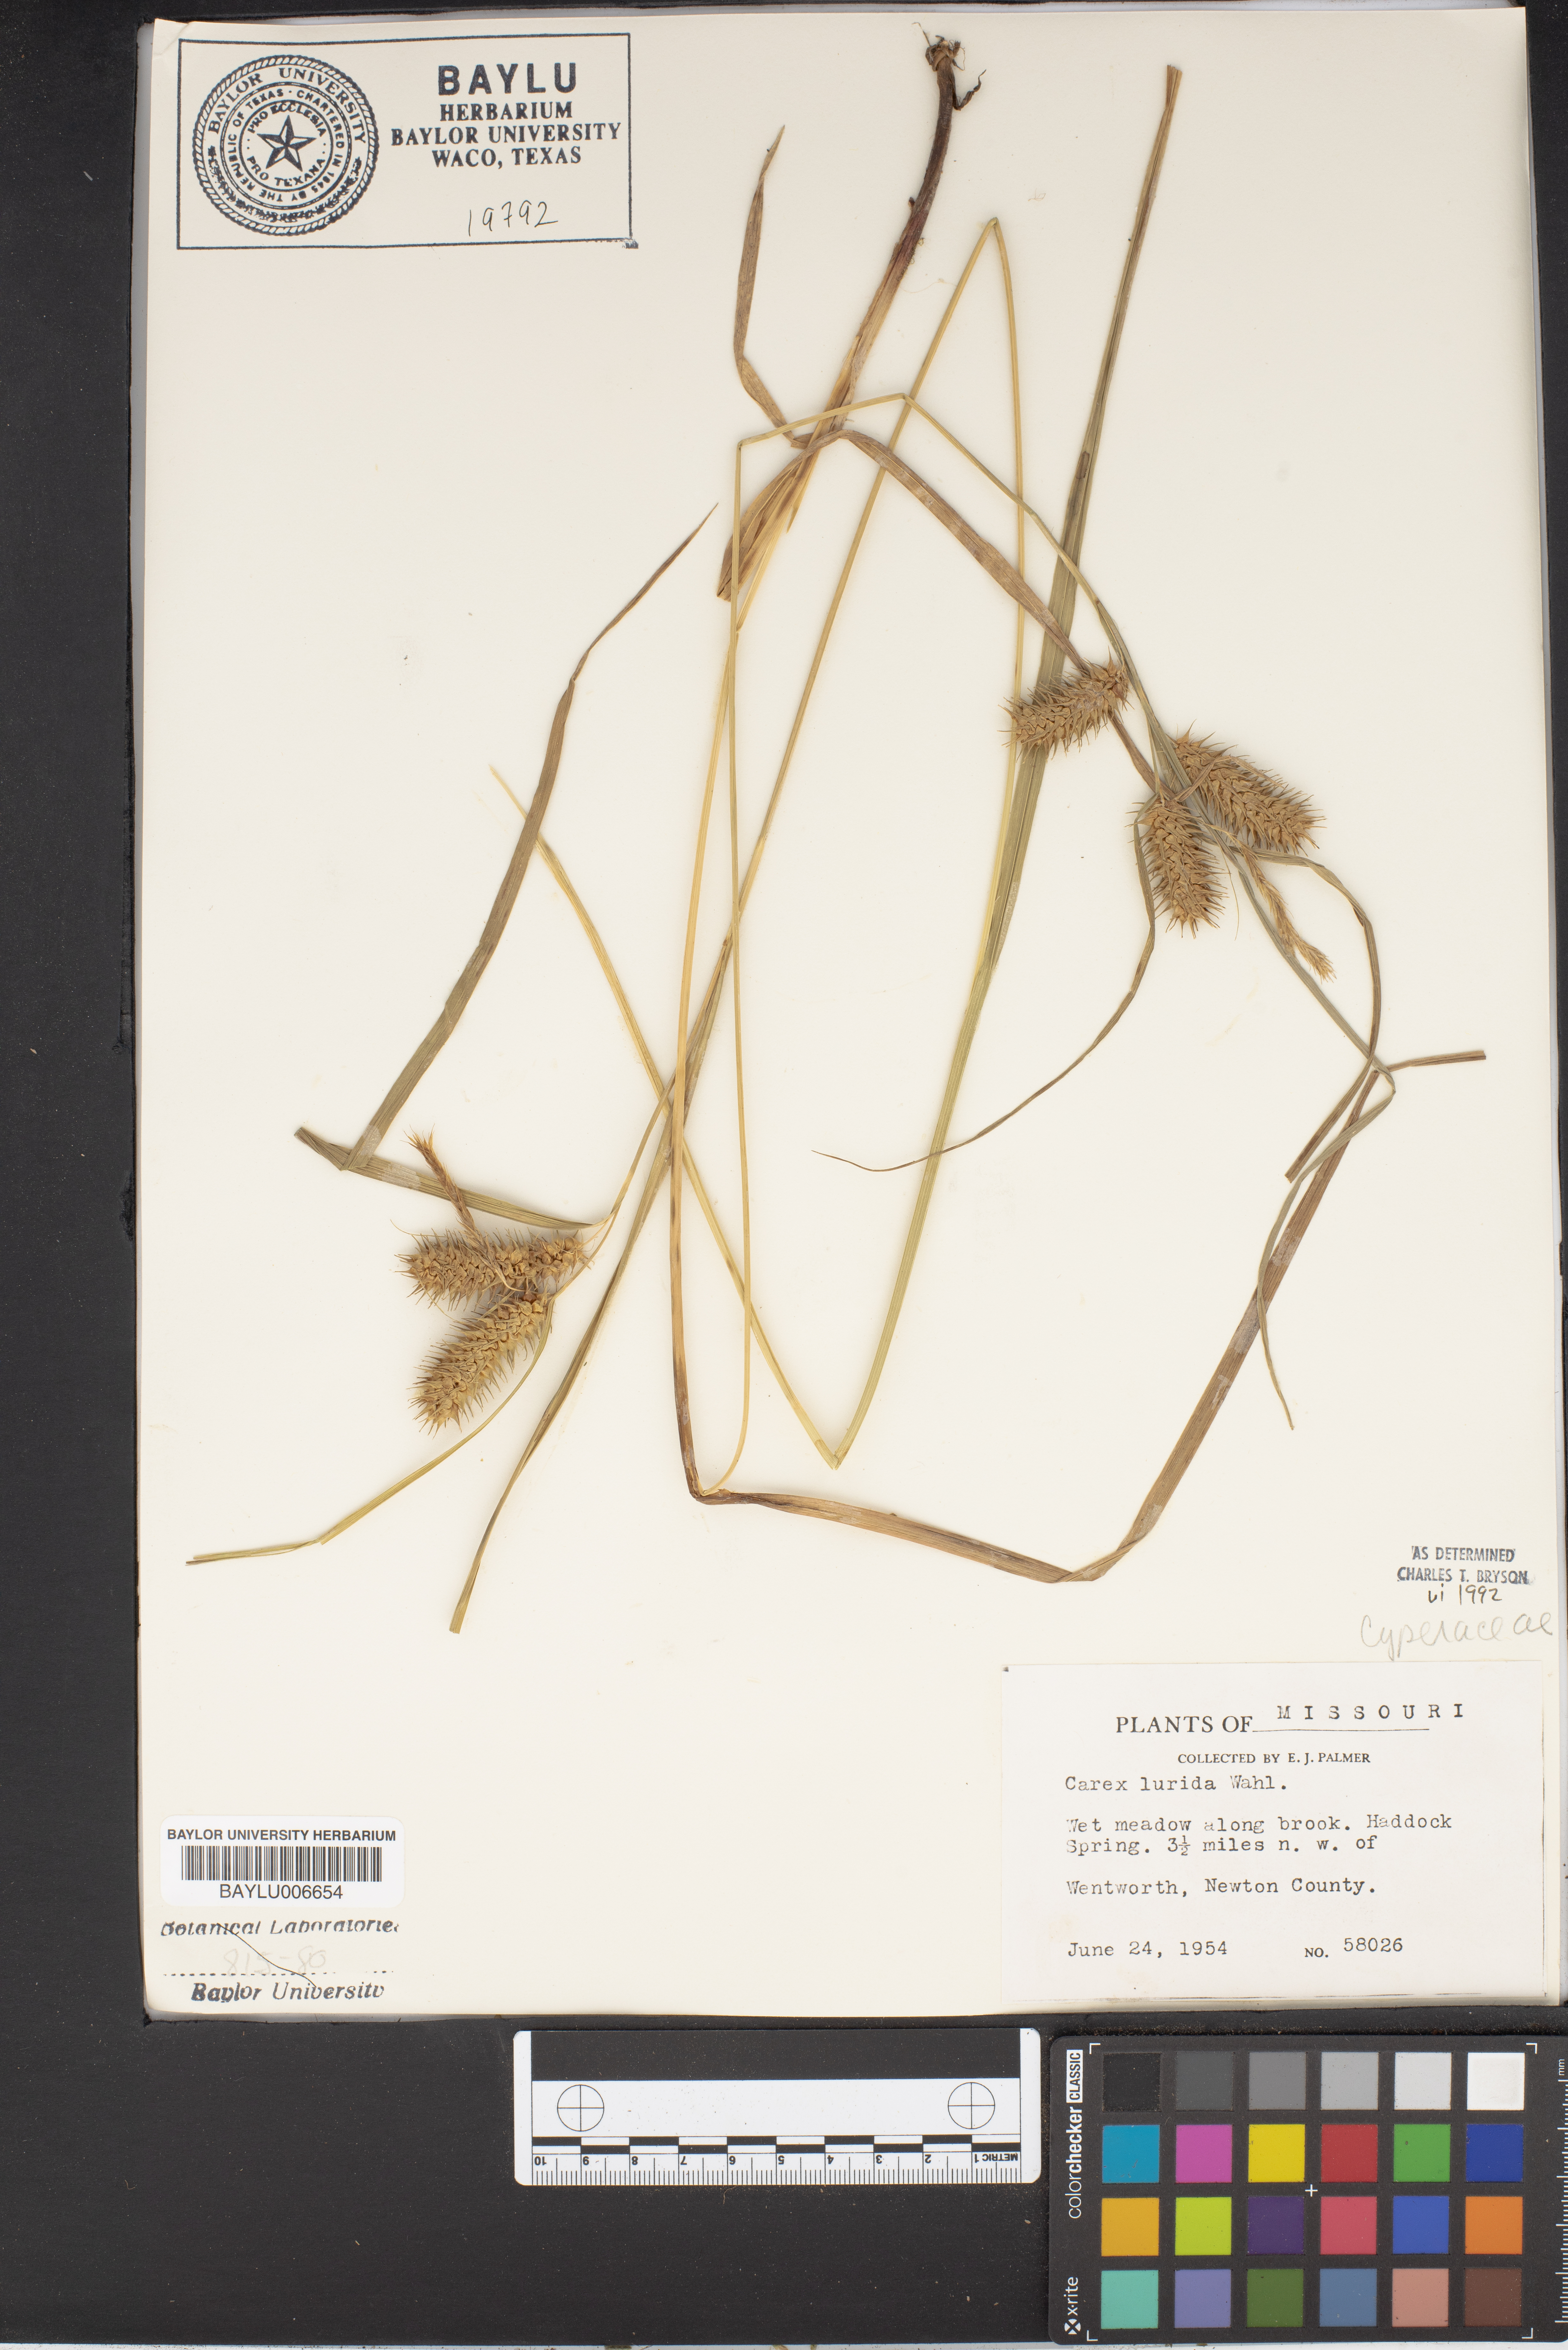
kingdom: Plantae
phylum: Tracheophyta
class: Liliopsida
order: Poales
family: Cyperaceae
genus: Carex
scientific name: Carex lurida
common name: Sallow sedge
